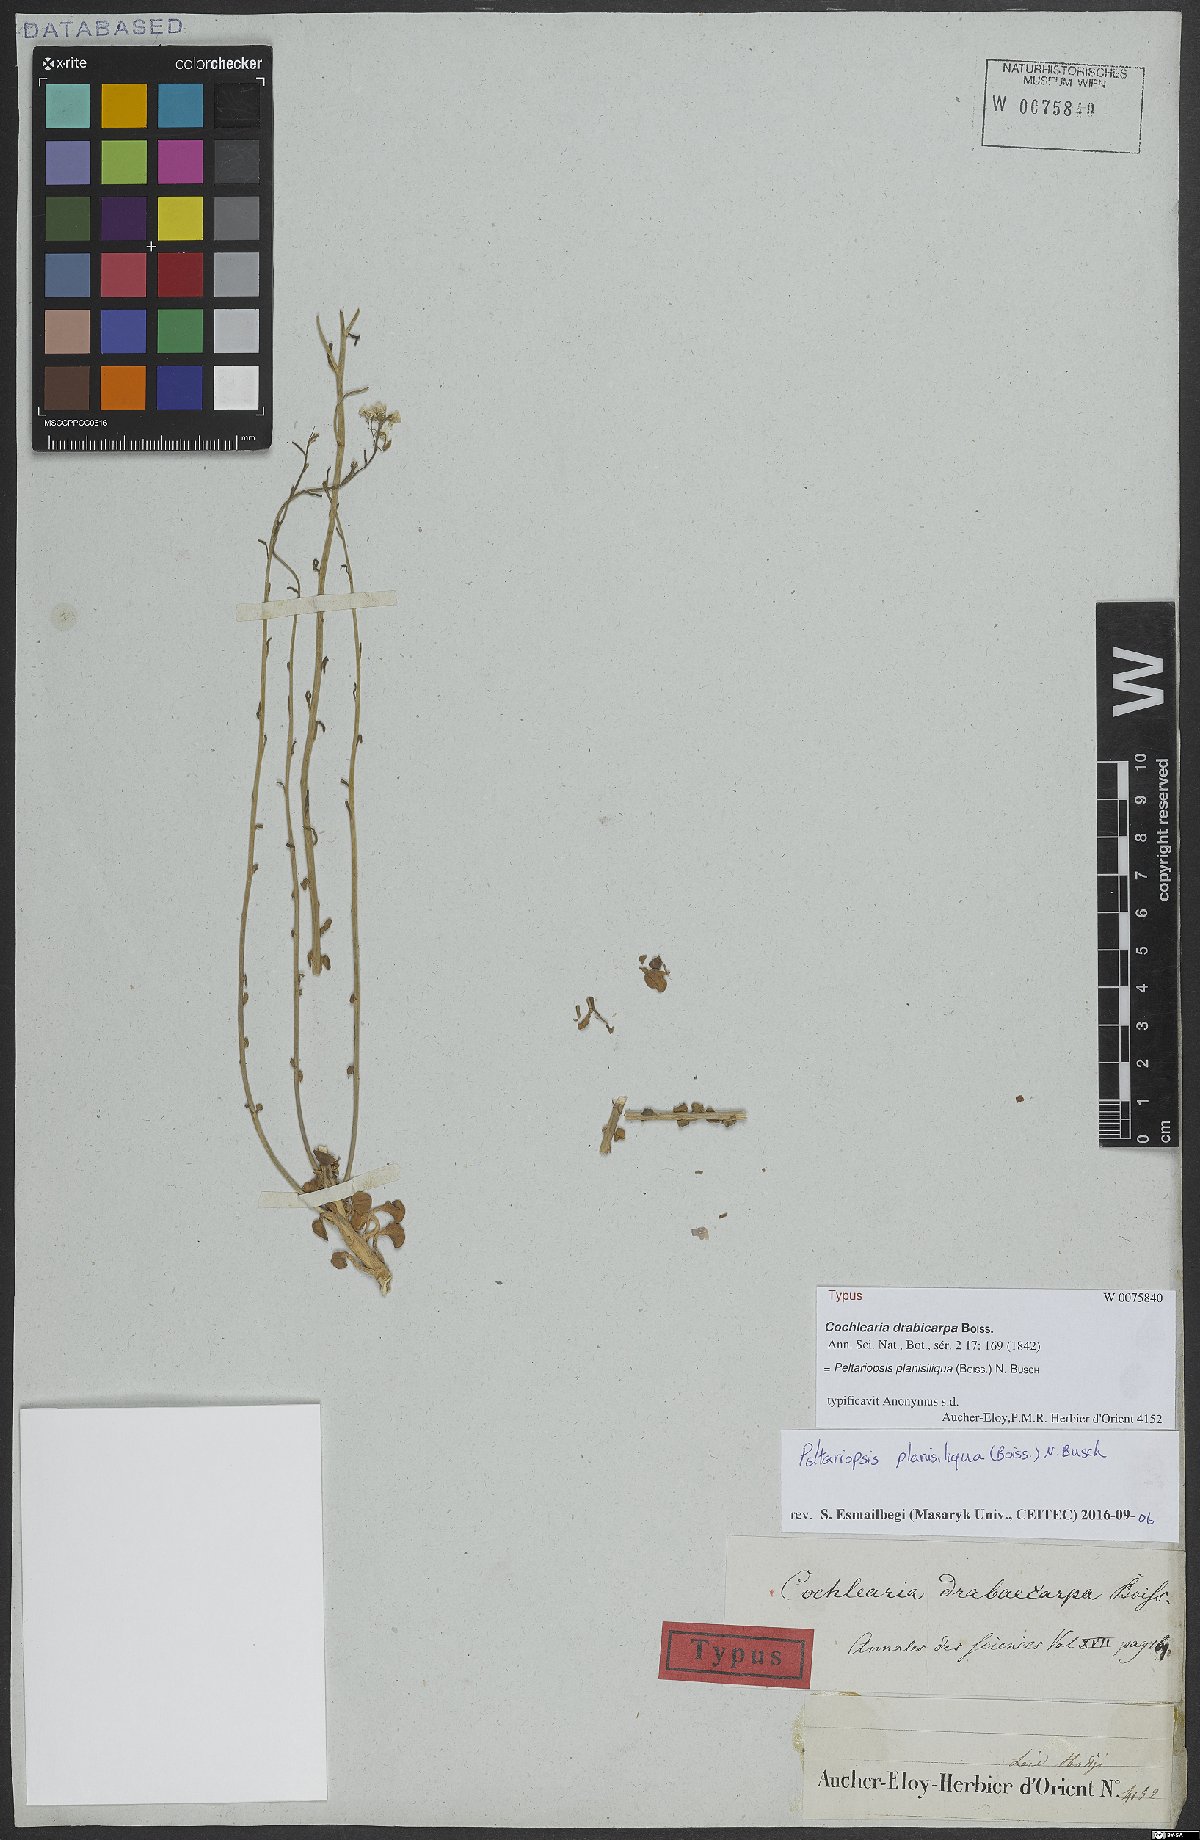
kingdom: Plantae
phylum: Tracheophyta
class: Magnoliopsida
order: Brassicales
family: Brassicaceae
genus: Peltariopsis
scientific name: Peltariopsis planisiliqua
